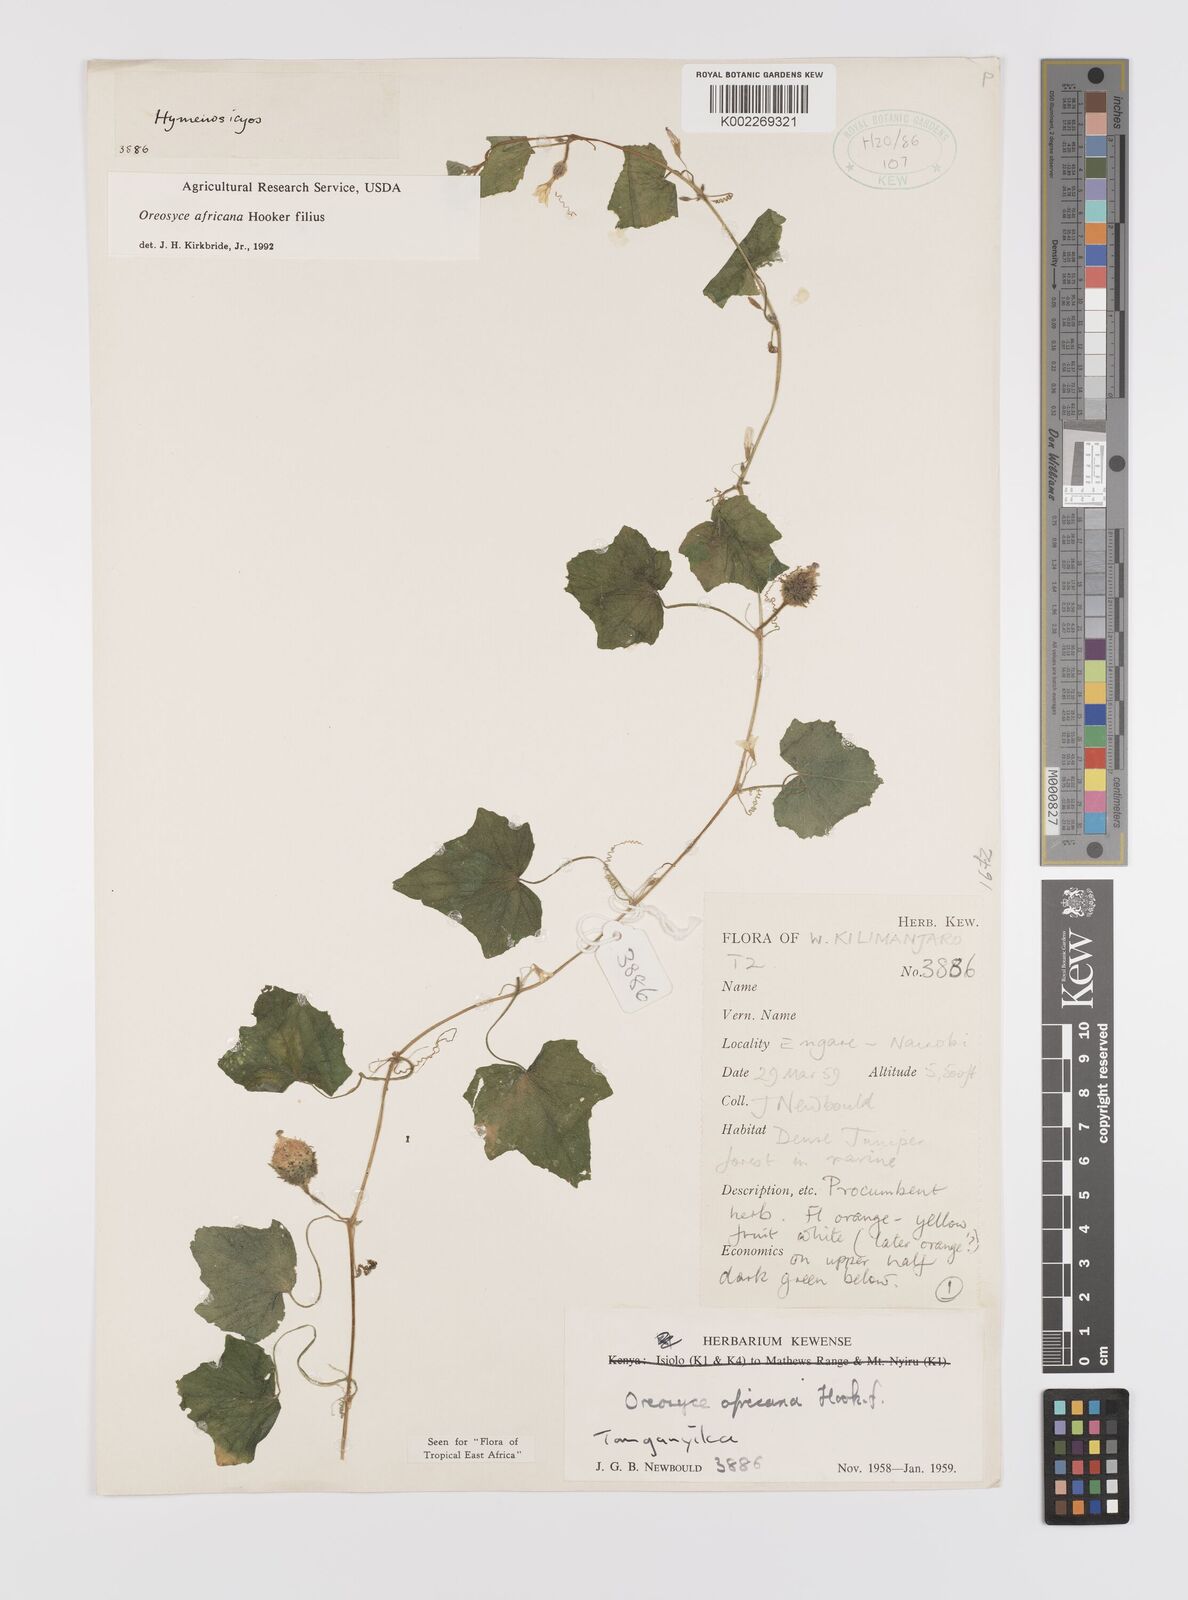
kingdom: Plantae
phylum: Tracheophyta
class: Magnoliopsida
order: Cucurbitales
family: Cucurbitaceae
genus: Cucumis
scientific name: Cucumis oreosyce
